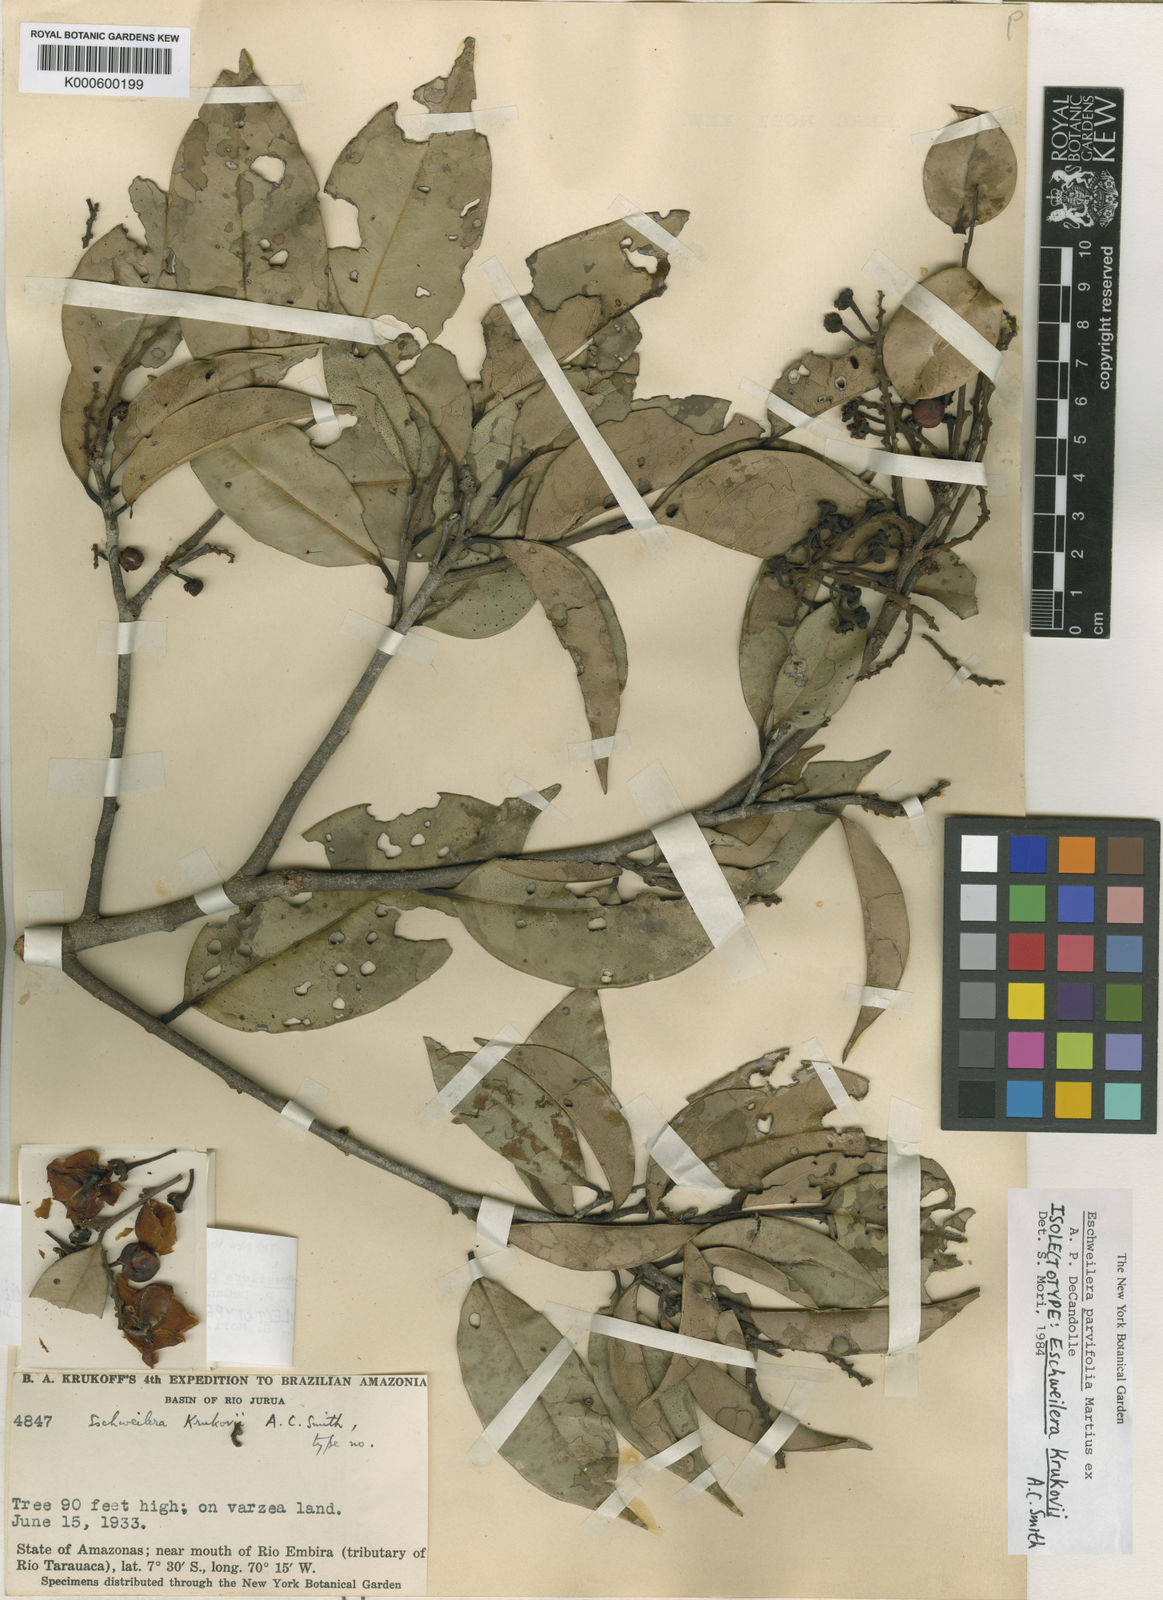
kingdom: Plantae
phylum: Tracheophyta
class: Magnoliopsida
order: Ericales
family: Lecythidaceae
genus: Eschweilera
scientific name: Eschweilera parvifolia
